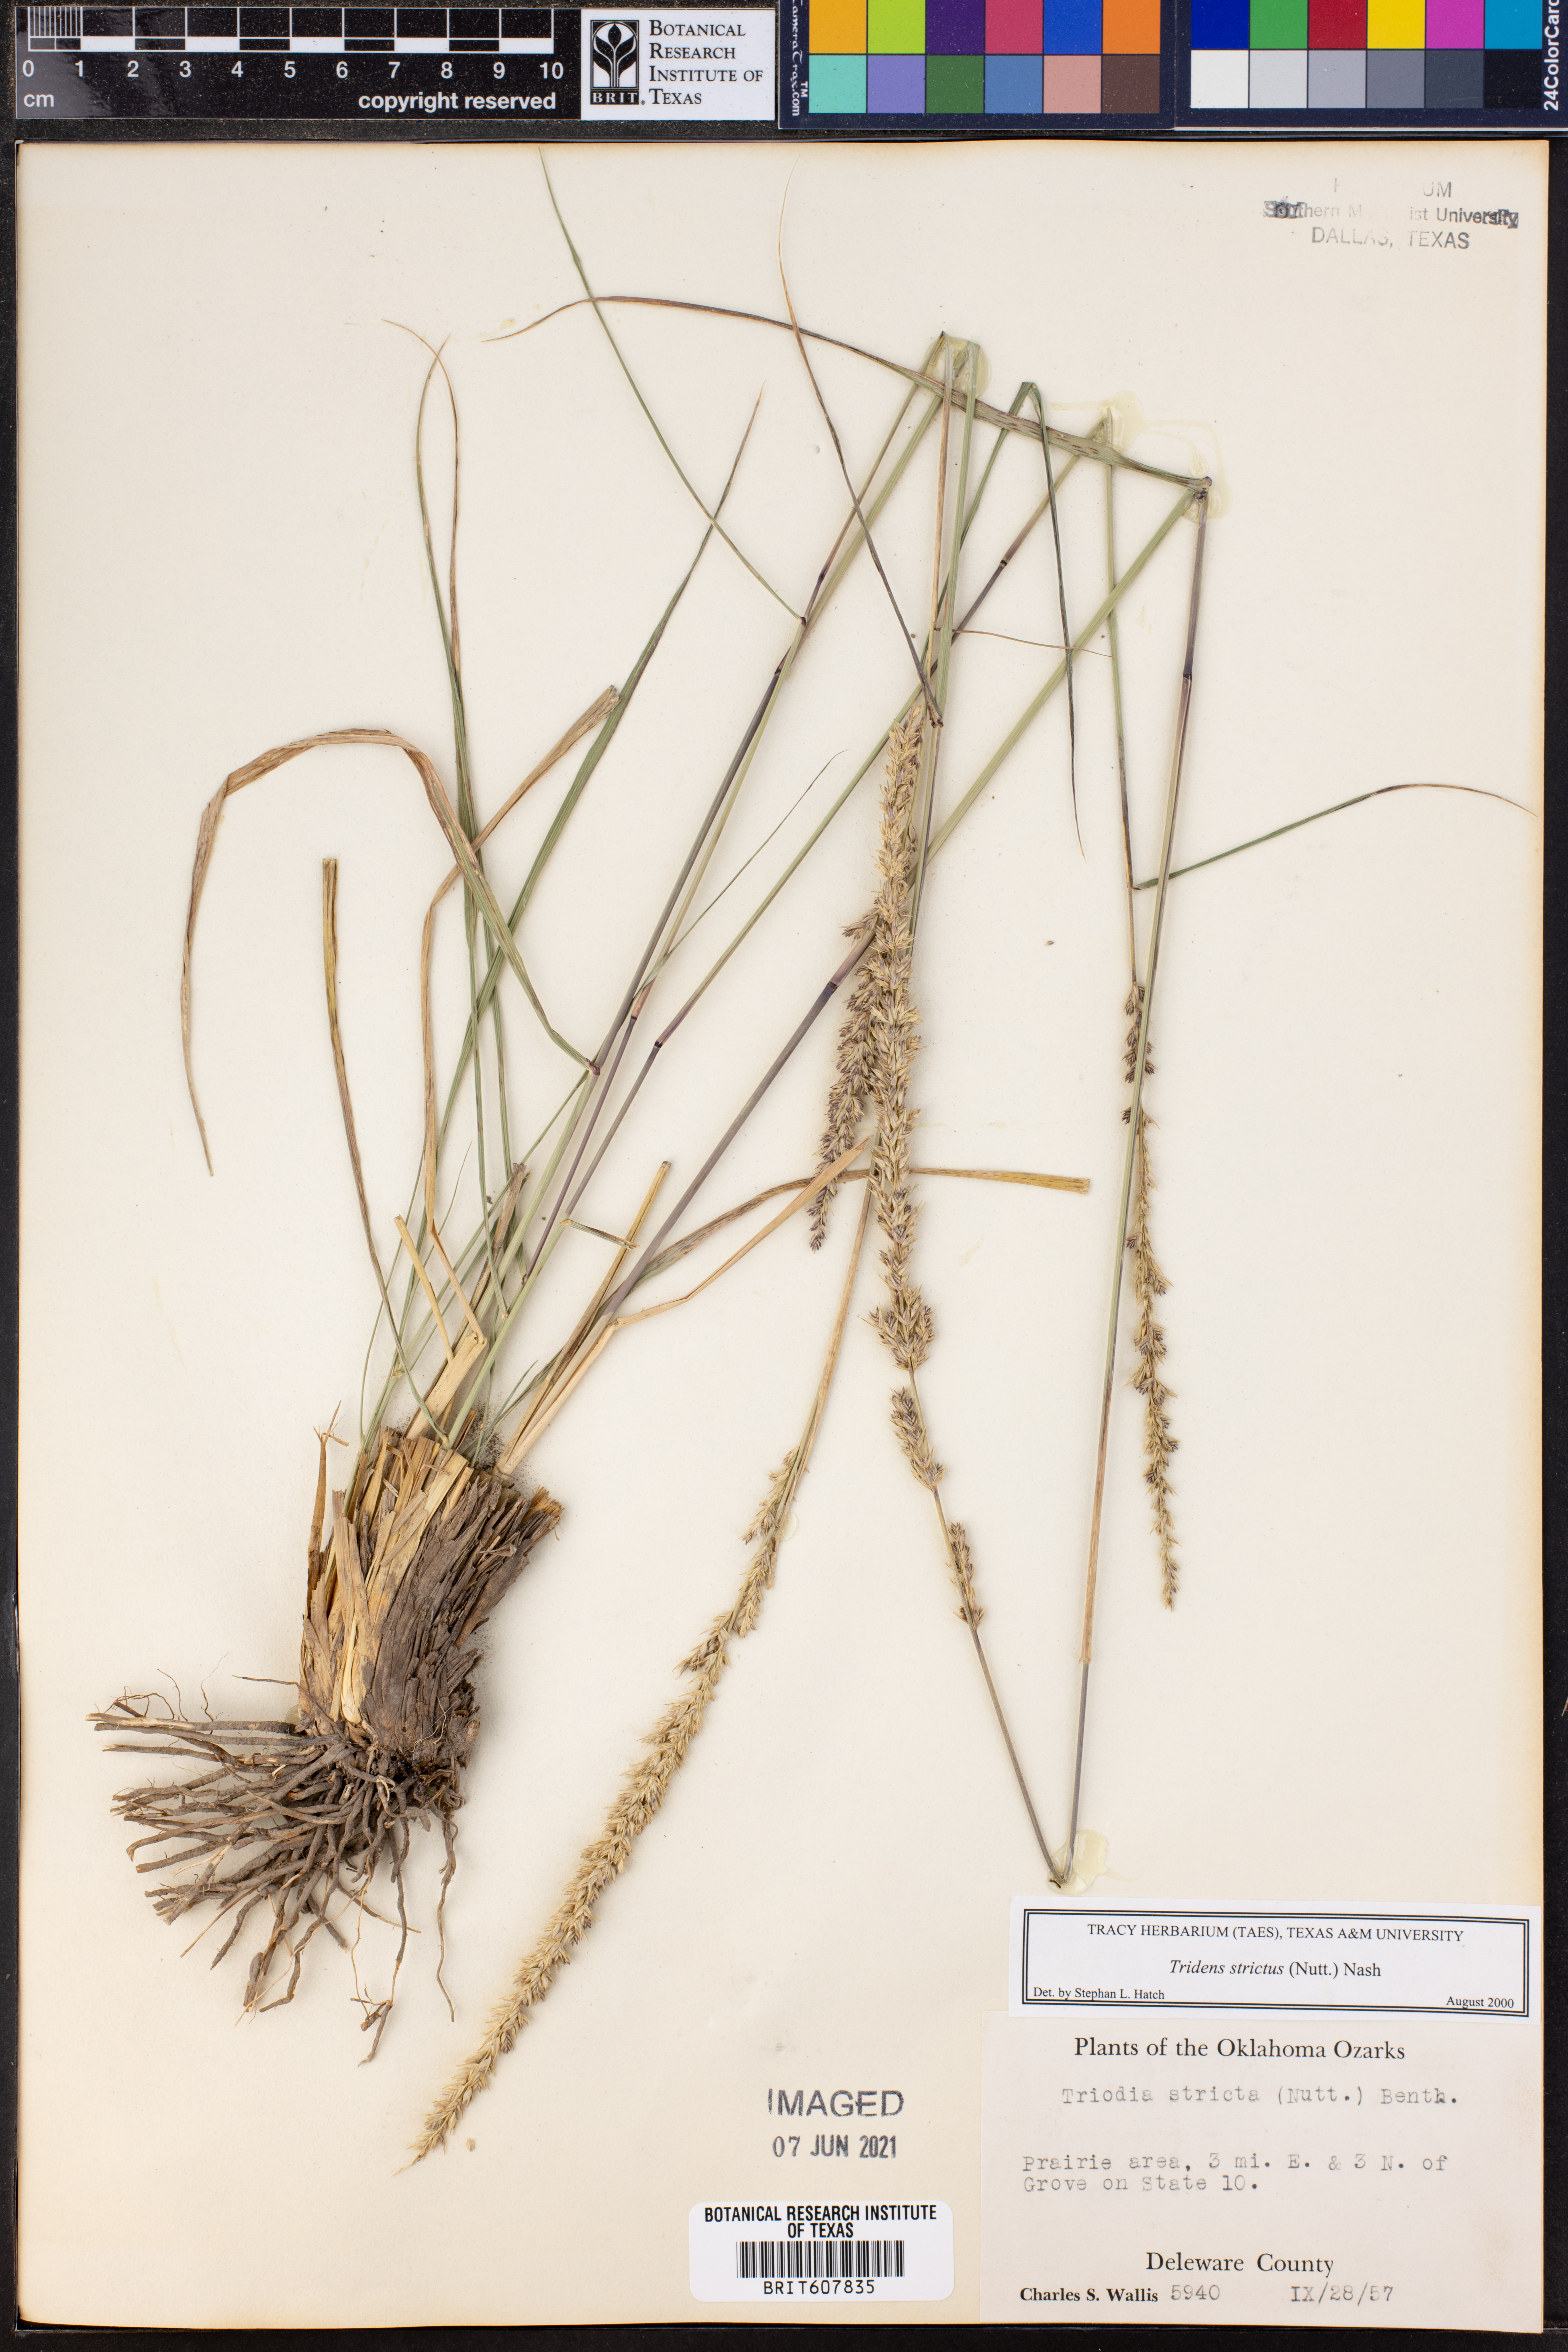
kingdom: Plantae
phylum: Tracheophyta
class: Liliopsida
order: Poales
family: Poaceae
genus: Tridens
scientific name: Tridens strictus
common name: Long-spike tridens
